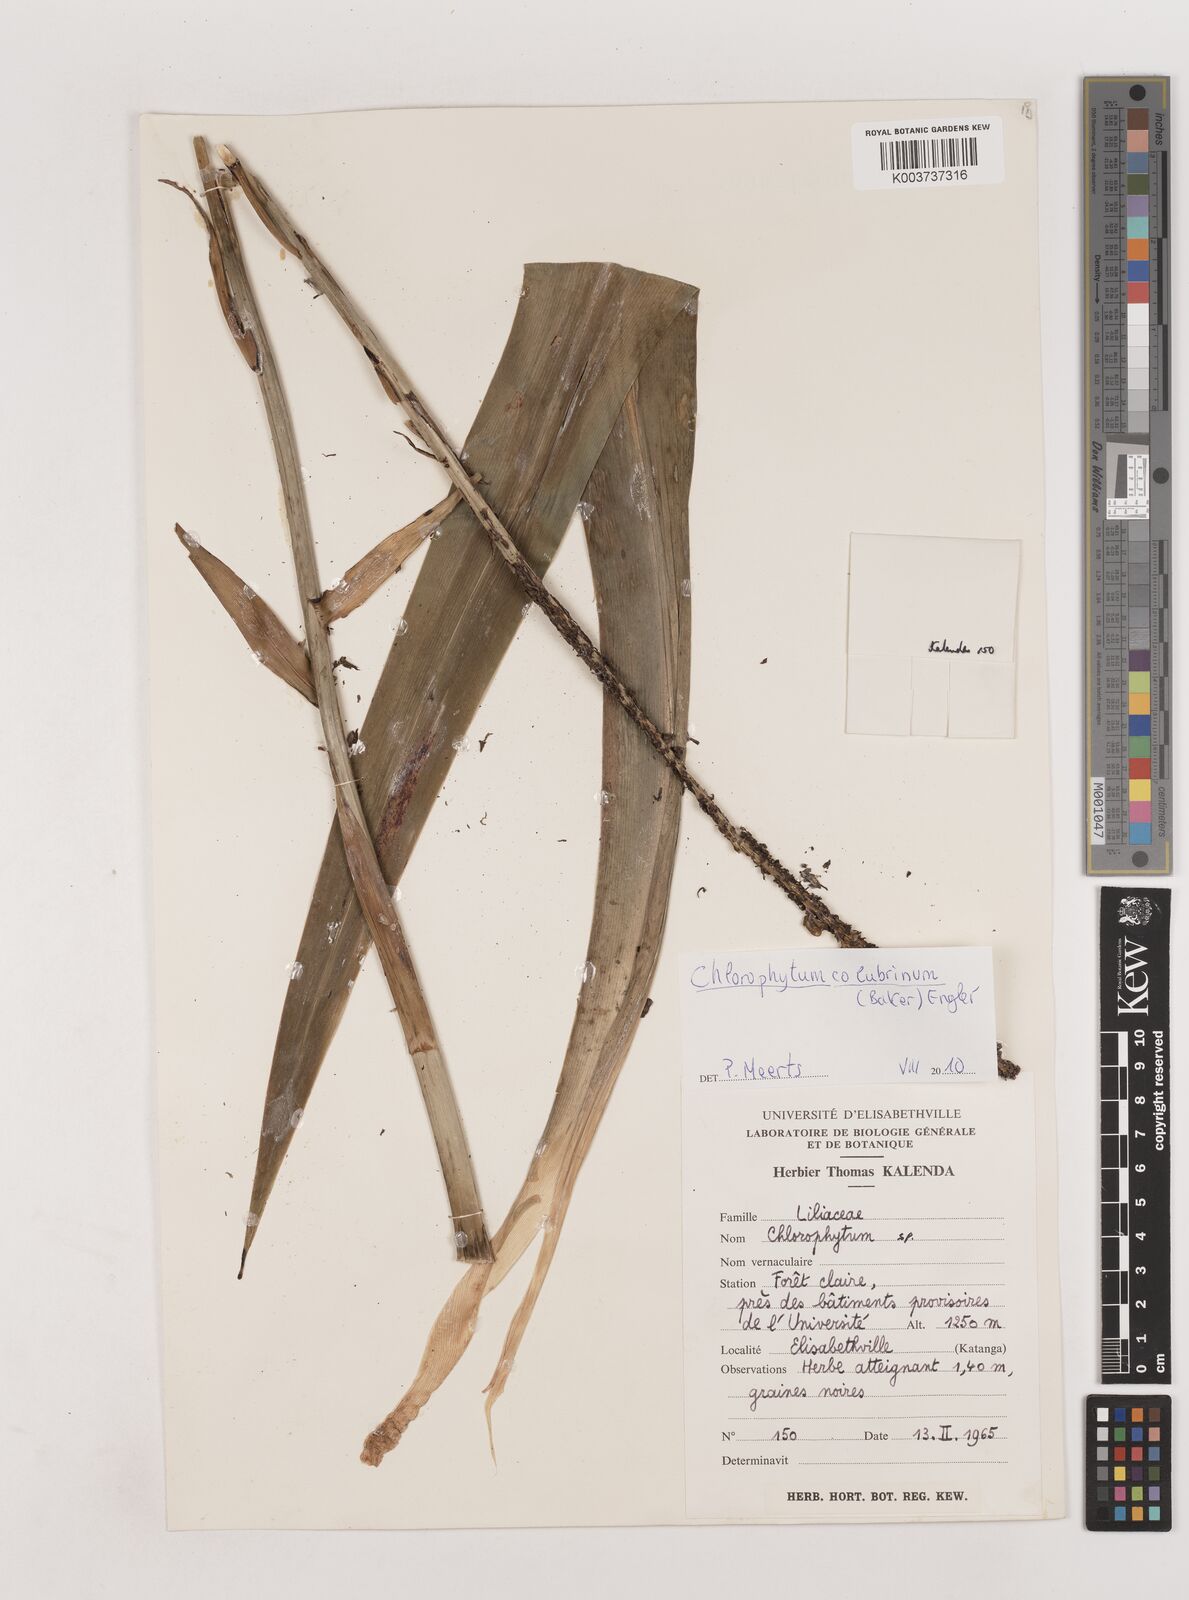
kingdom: Plantae
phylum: Tracheophyta
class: Liliopsida
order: Asparagales
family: Asparagaceae
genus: Chlorophytum
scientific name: Chlorophytum colubrinum
